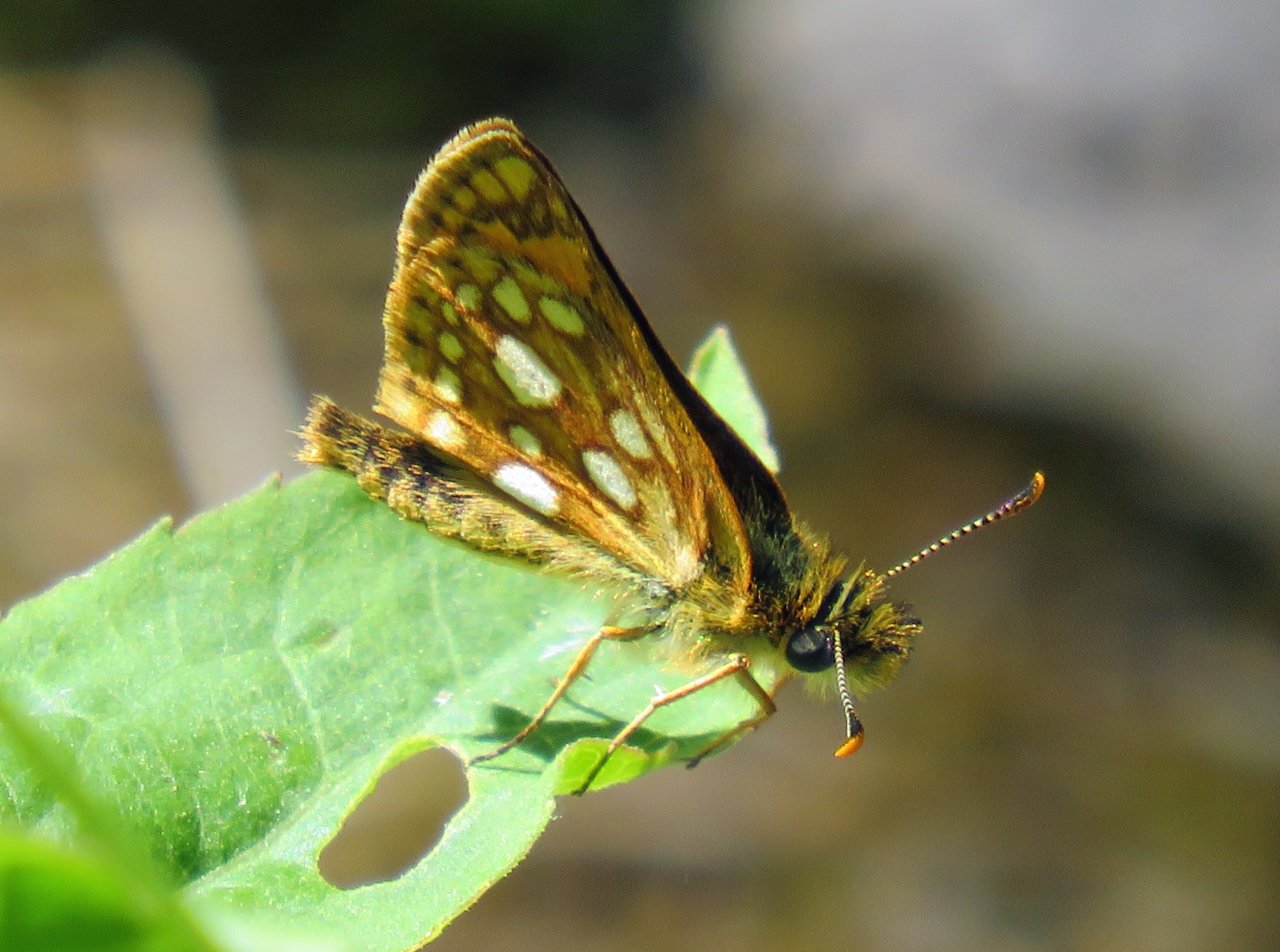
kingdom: Animalia
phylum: Arthropoda
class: Insecta
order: Lepidoptera
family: Hesperiidae
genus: Carterocephalus
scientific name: Carterocephalus palaemon
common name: Chequered Skipper
